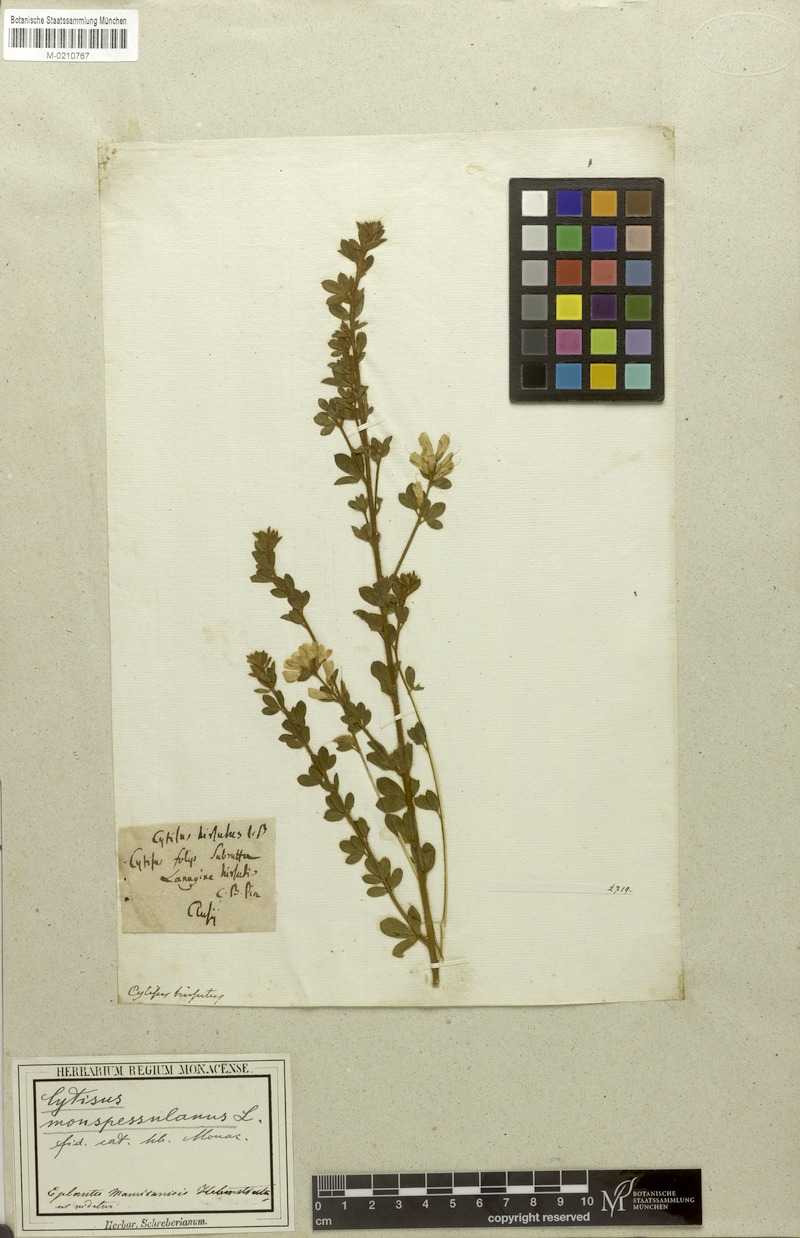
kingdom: Plantae
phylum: Tracheophyta
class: Magnoliopsida
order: Fabales
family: Fabaceae
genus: Genista
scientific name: Genista monspessulana
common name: Montpellier broom
